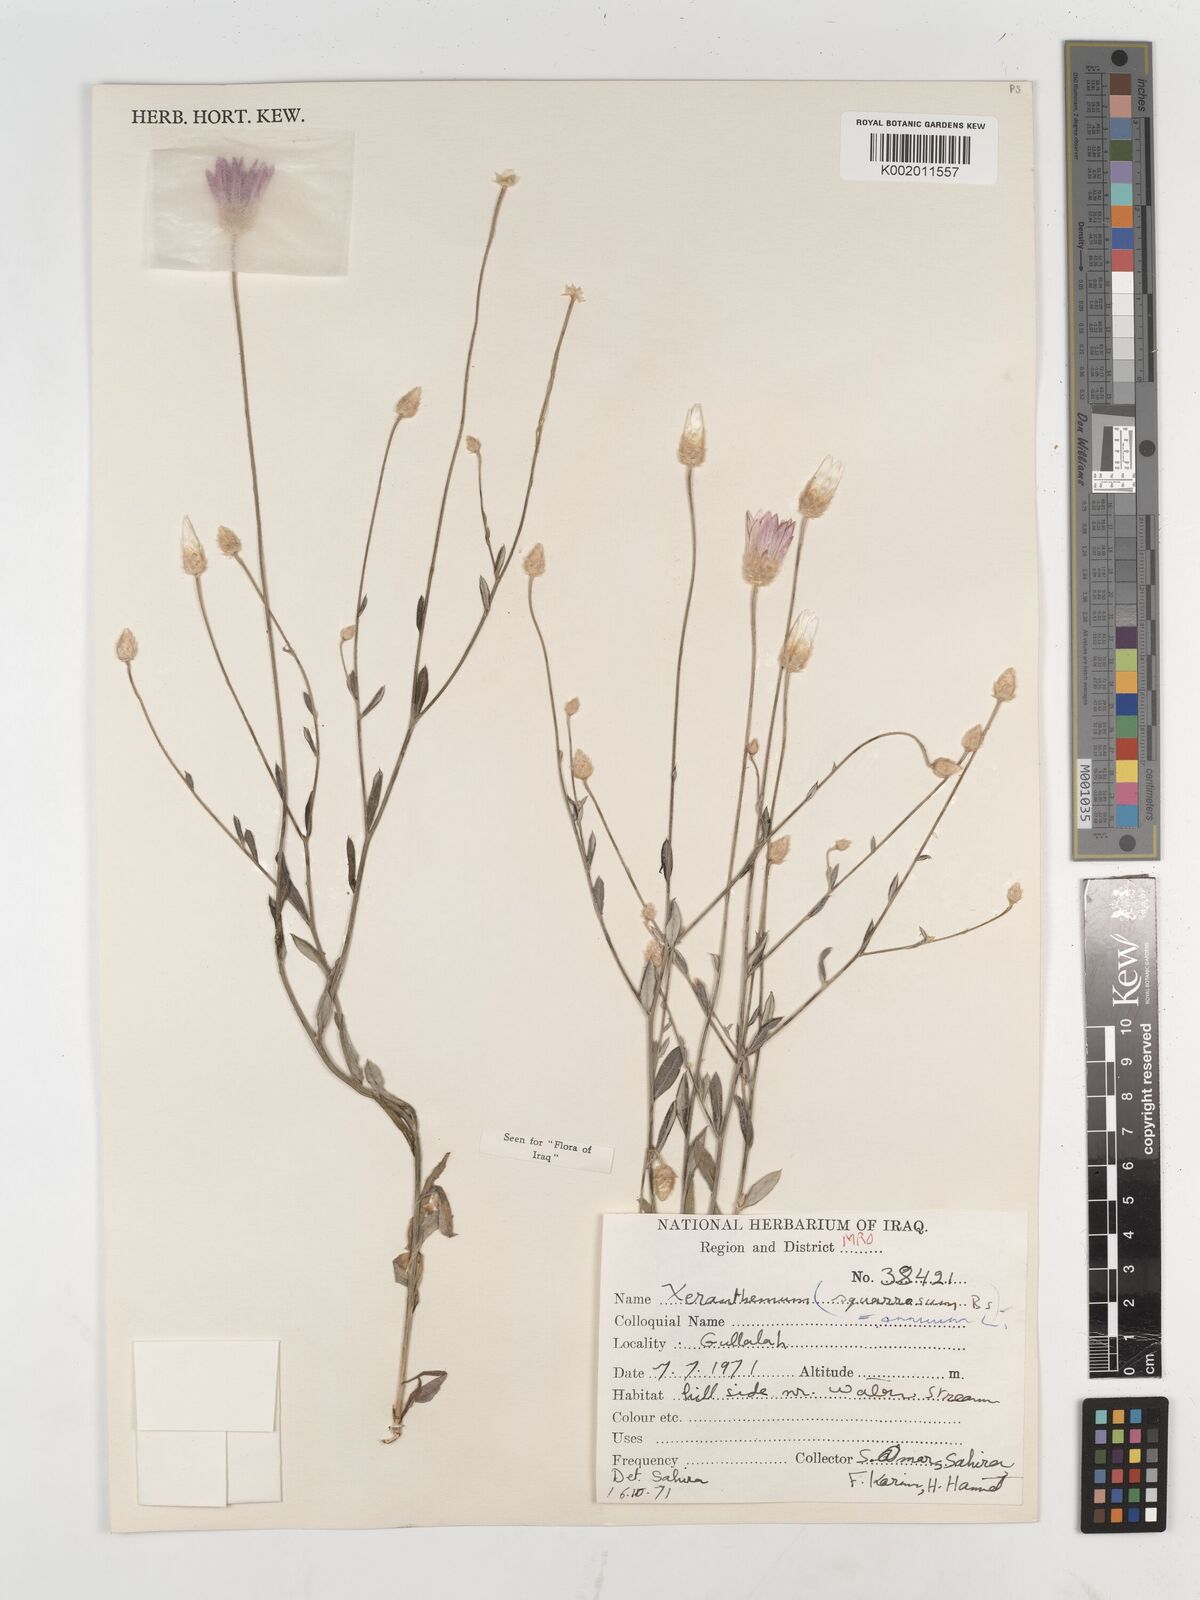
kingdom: Plantae
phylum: Tracheophyta
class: Magnoliopsida
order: Asterales
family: Asteraceae
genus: Xeranthemum
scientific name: Xeranthemum annuum
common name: Immortelle
